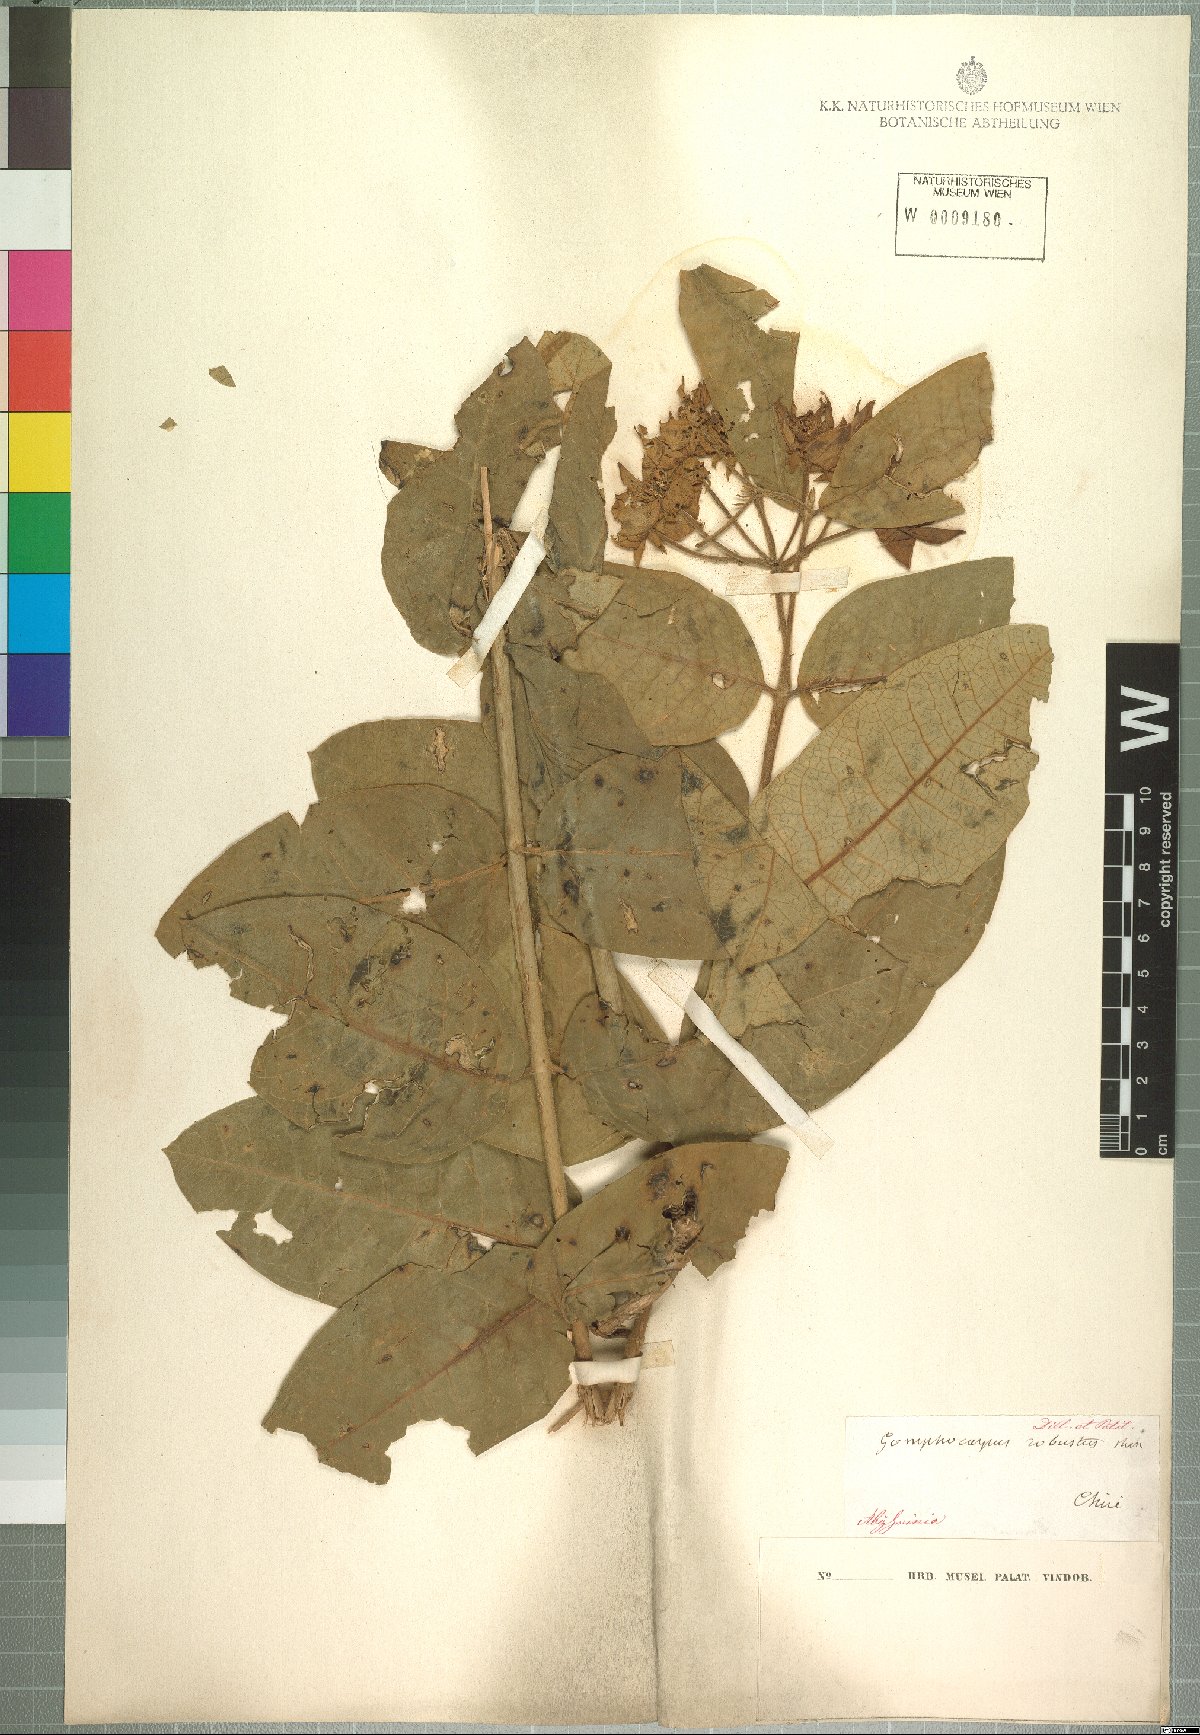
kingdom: Plantae
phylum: Tracheophyta
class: Magnoliopsida
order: Gentianales
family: Apocynaceae
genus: Pachycarpus
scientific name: Pachycarpus robustus
